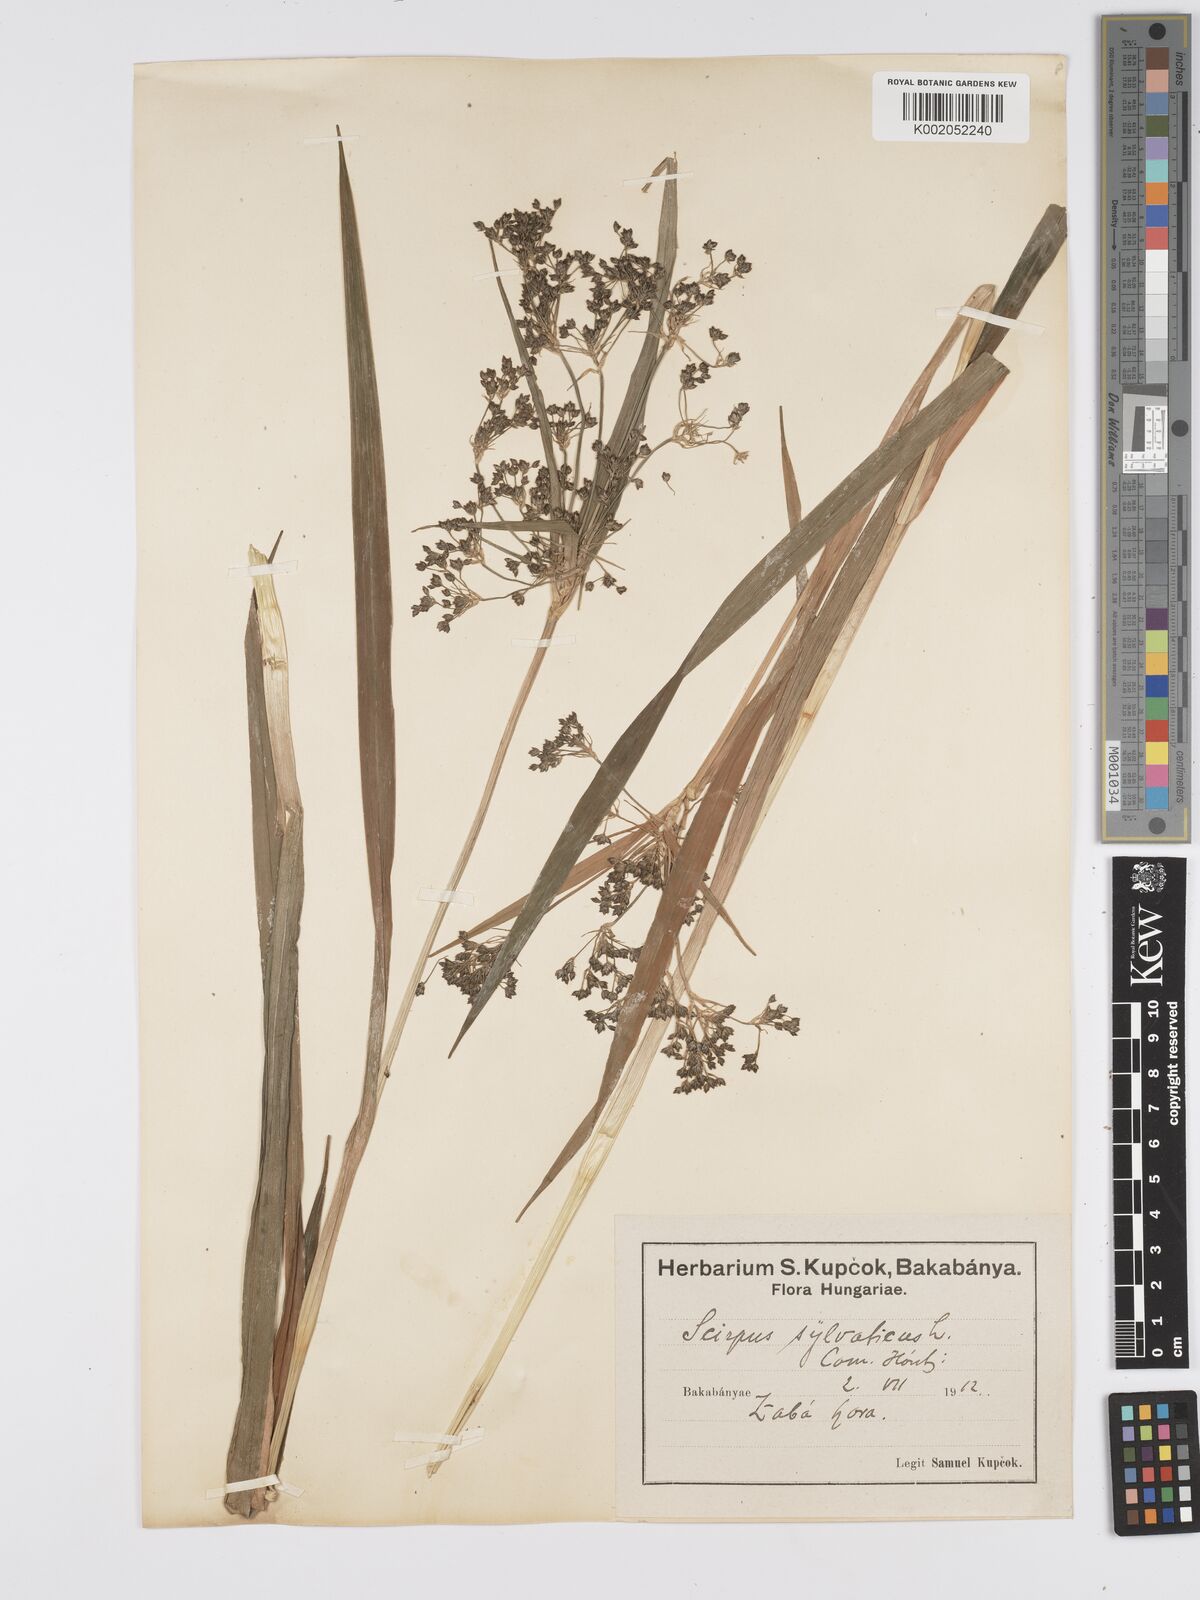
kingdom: Plantae
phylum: Tracheophyta
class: Liliopsida
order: Poales
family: Cyperaceae
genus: Scirpus
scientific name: Scirpus sylvaticus
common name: Wood club-rush
